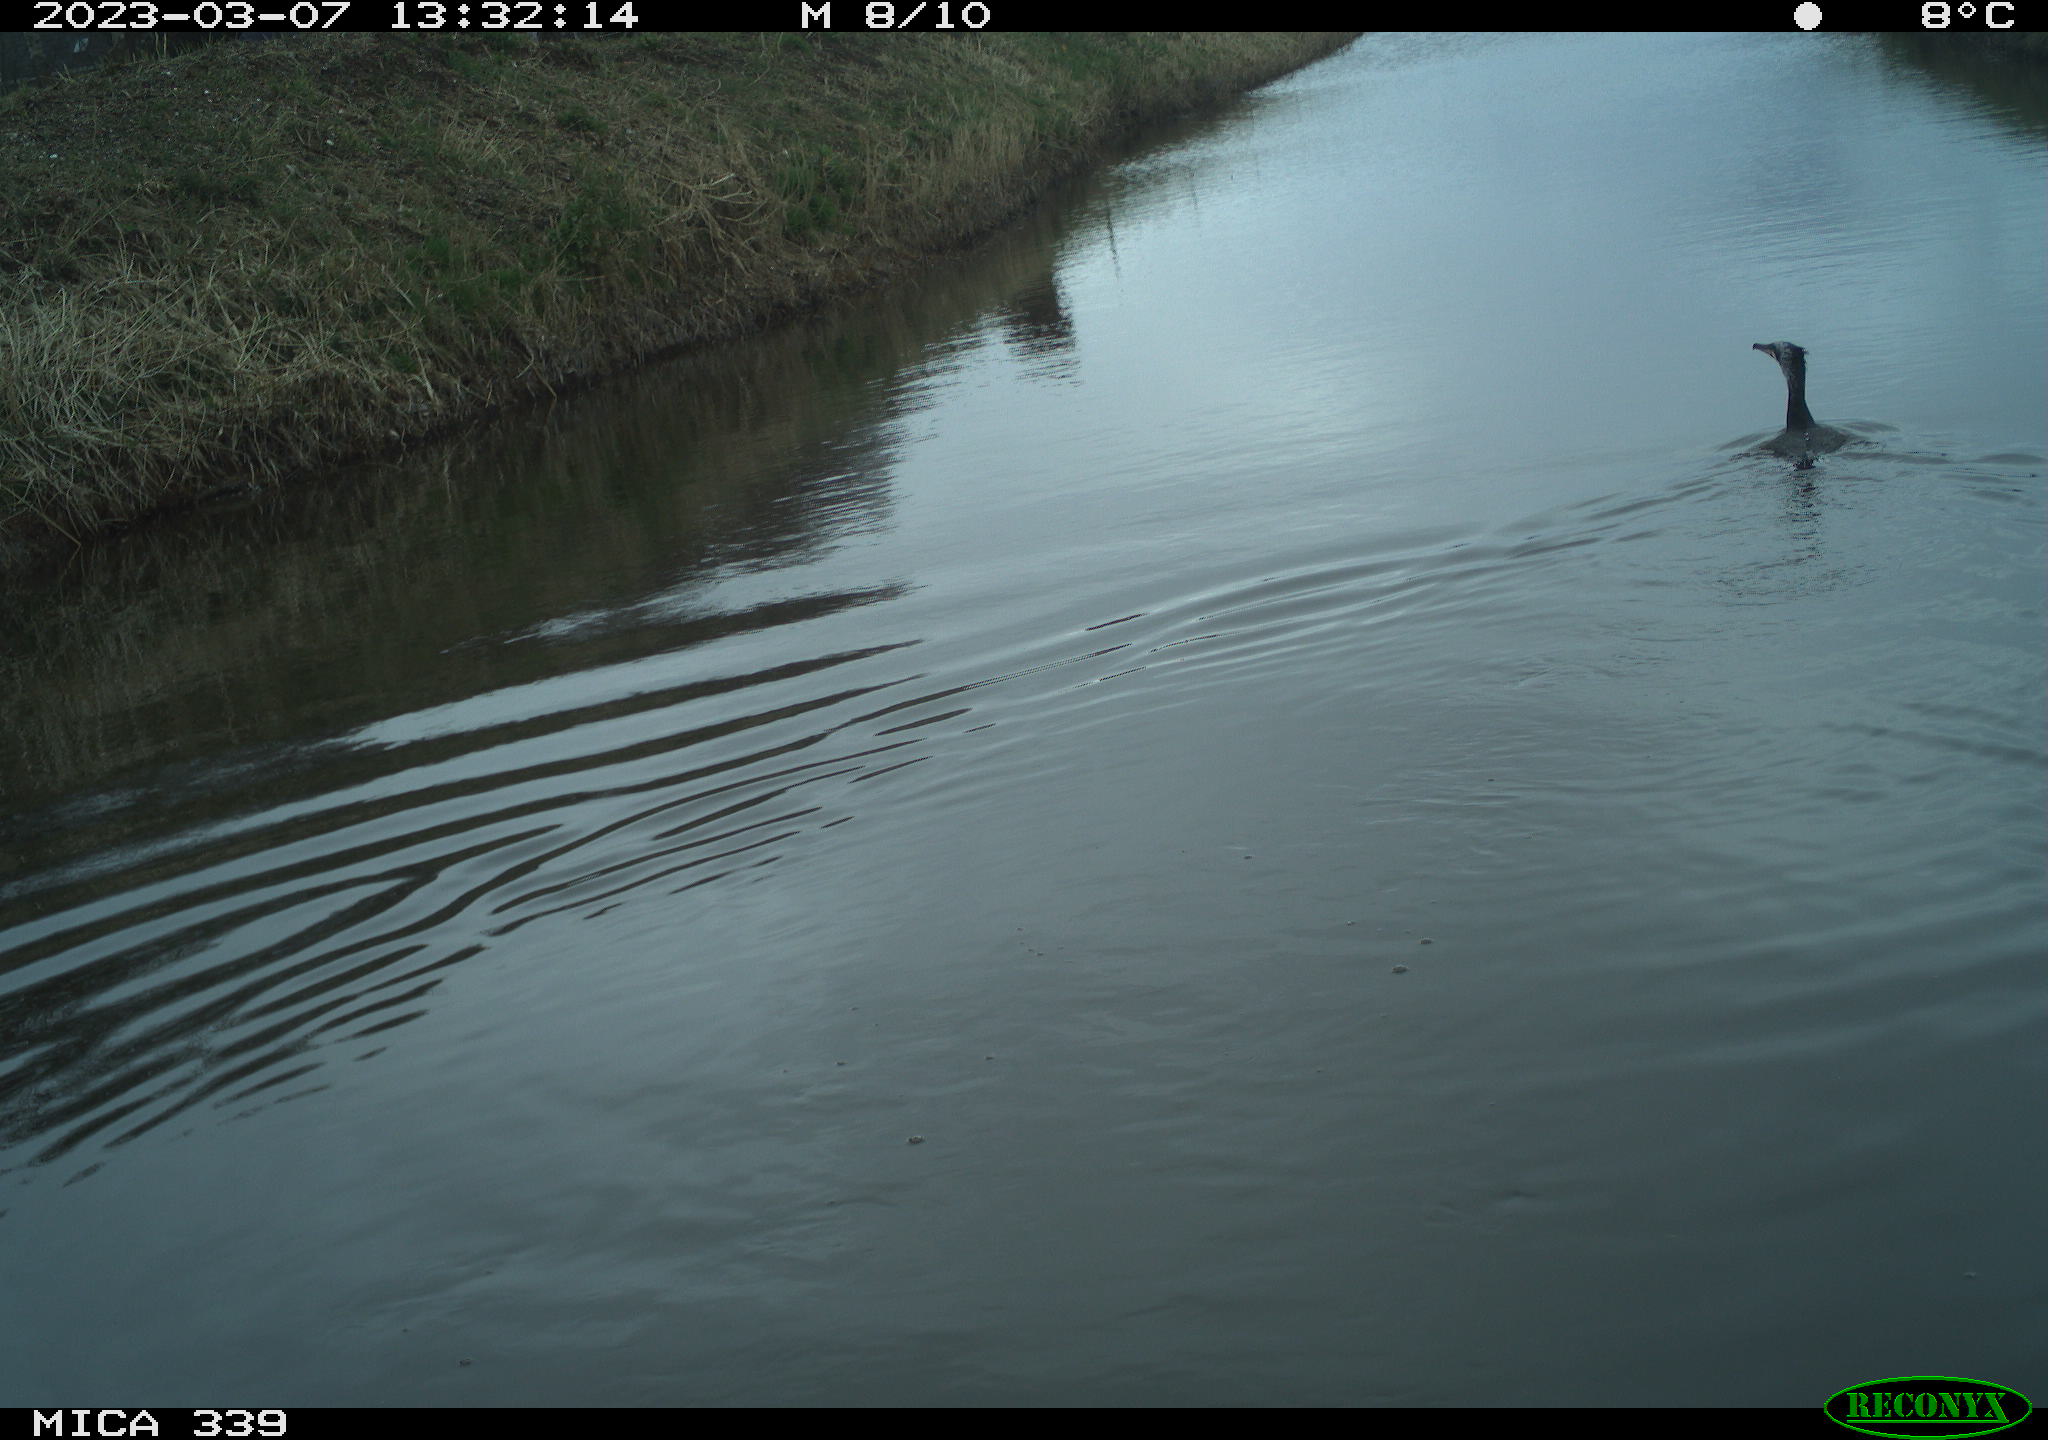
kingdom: Animalia
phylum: Chordata
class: Aves
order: Suliformes
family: Phalacrocoracidae
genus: Phalacrocorax
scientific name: Phalacrocorax carbo
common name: Great cormorant
